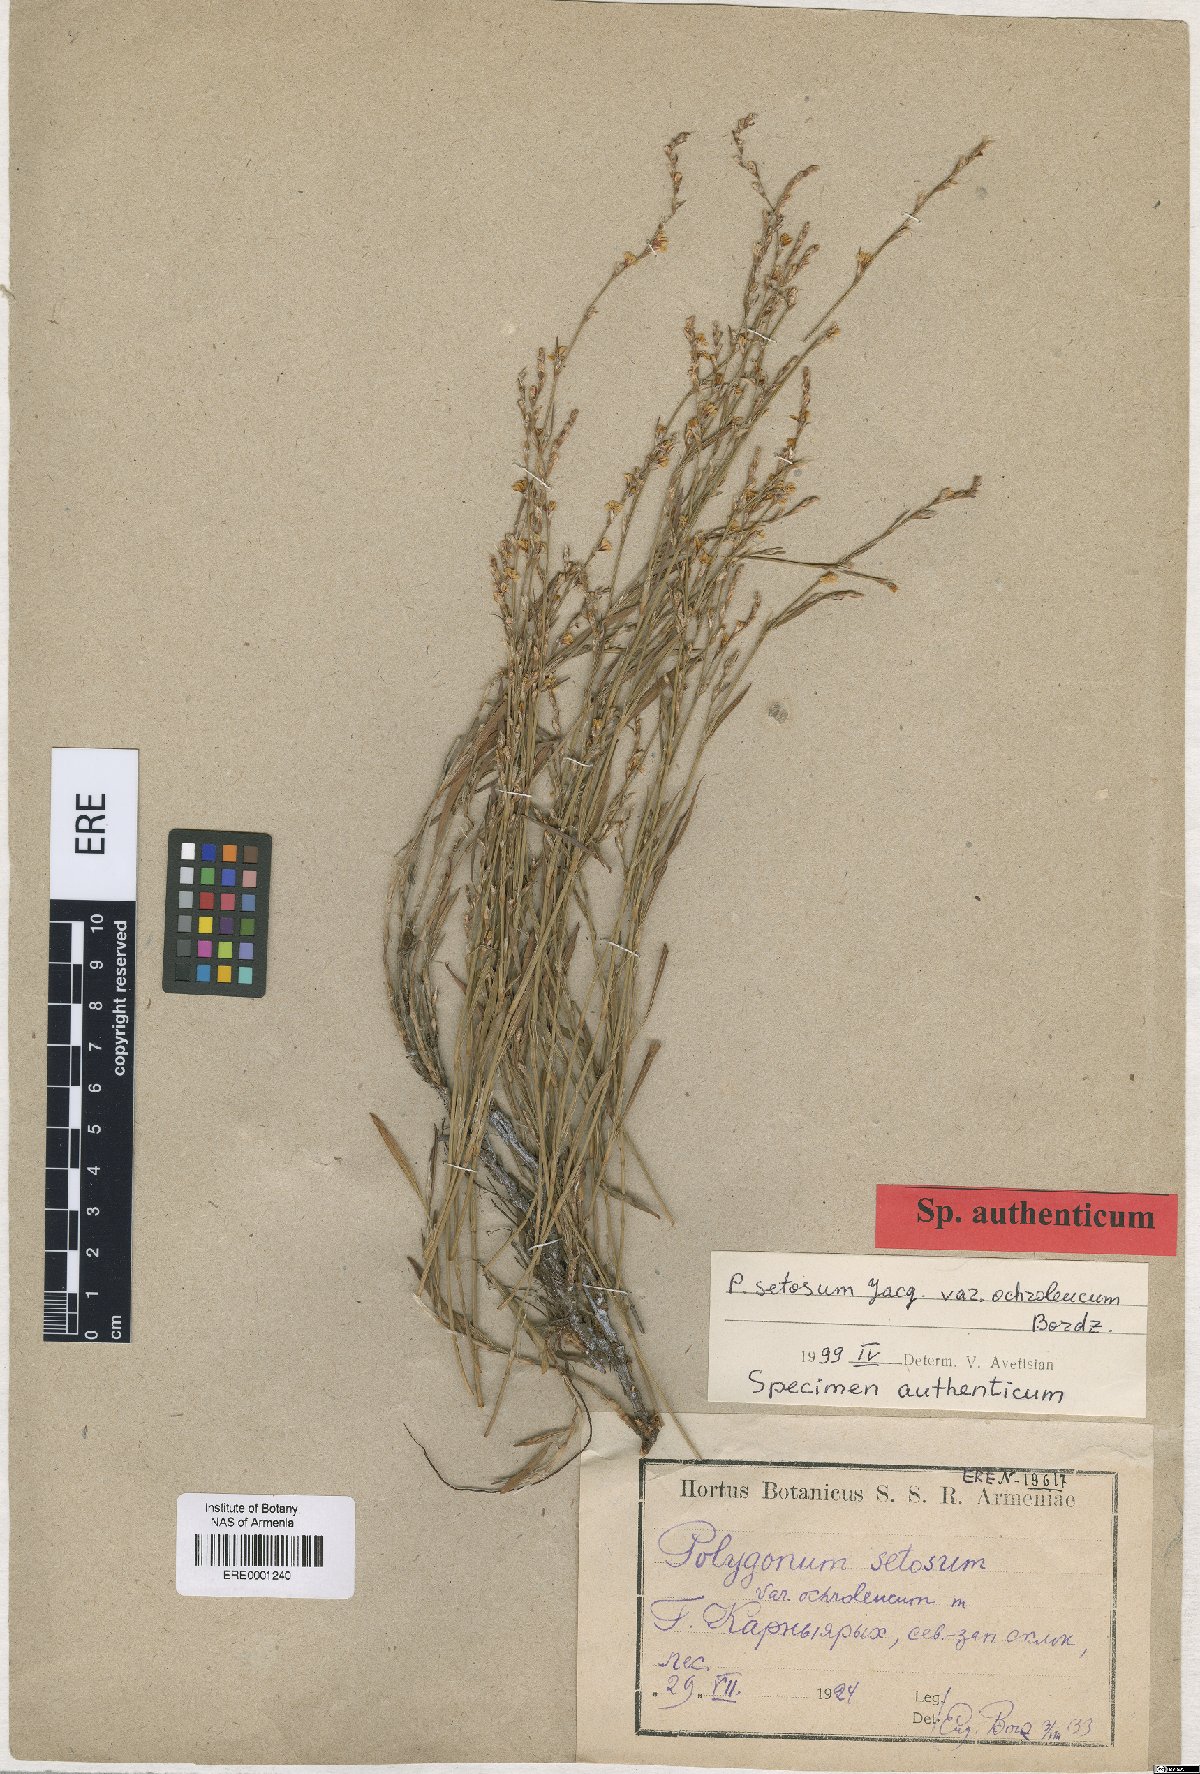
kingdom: Plantae
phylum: Tracheophyta
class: Magnoliopsida
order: Caryophyllales
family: Polygonaceae
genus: Polygonum
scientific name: Polygonum setosum
